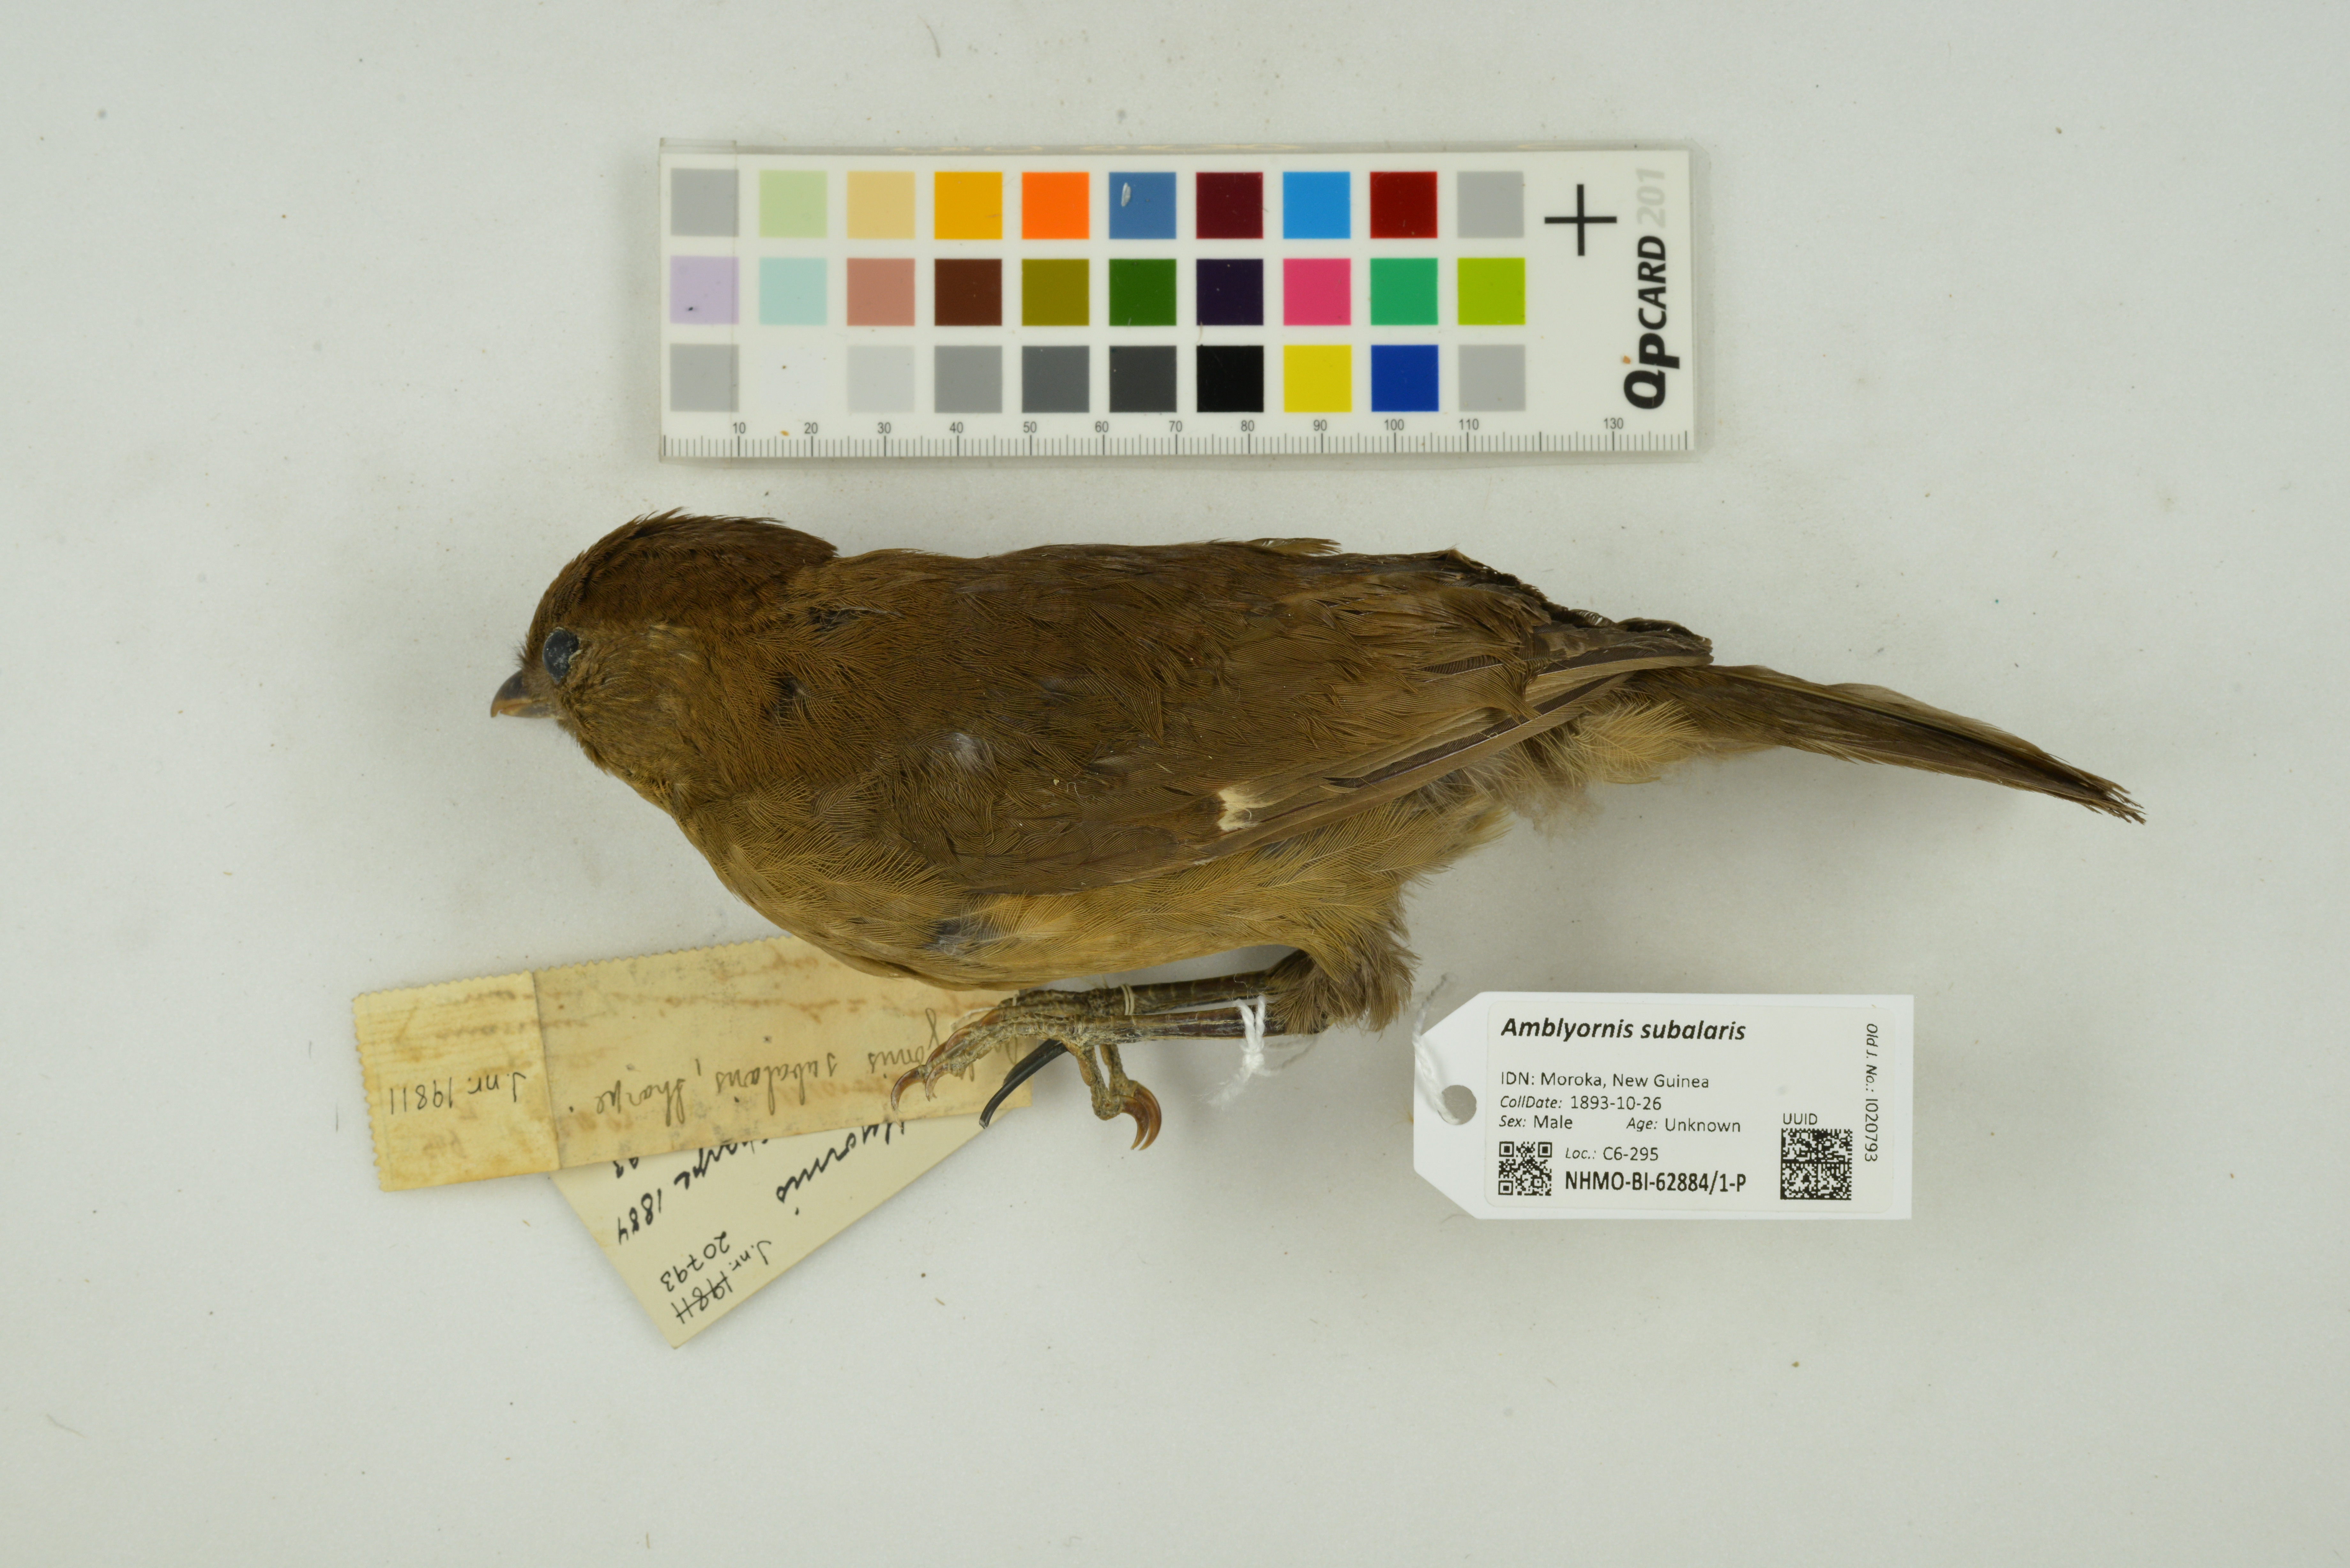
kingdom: Animalia
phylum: Chordata
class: Aves
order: Passeriformes
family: Ptilonorhynchidae
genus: Amblyornis
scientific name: Amblyornis subalaris
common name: Streaked bowerbird
